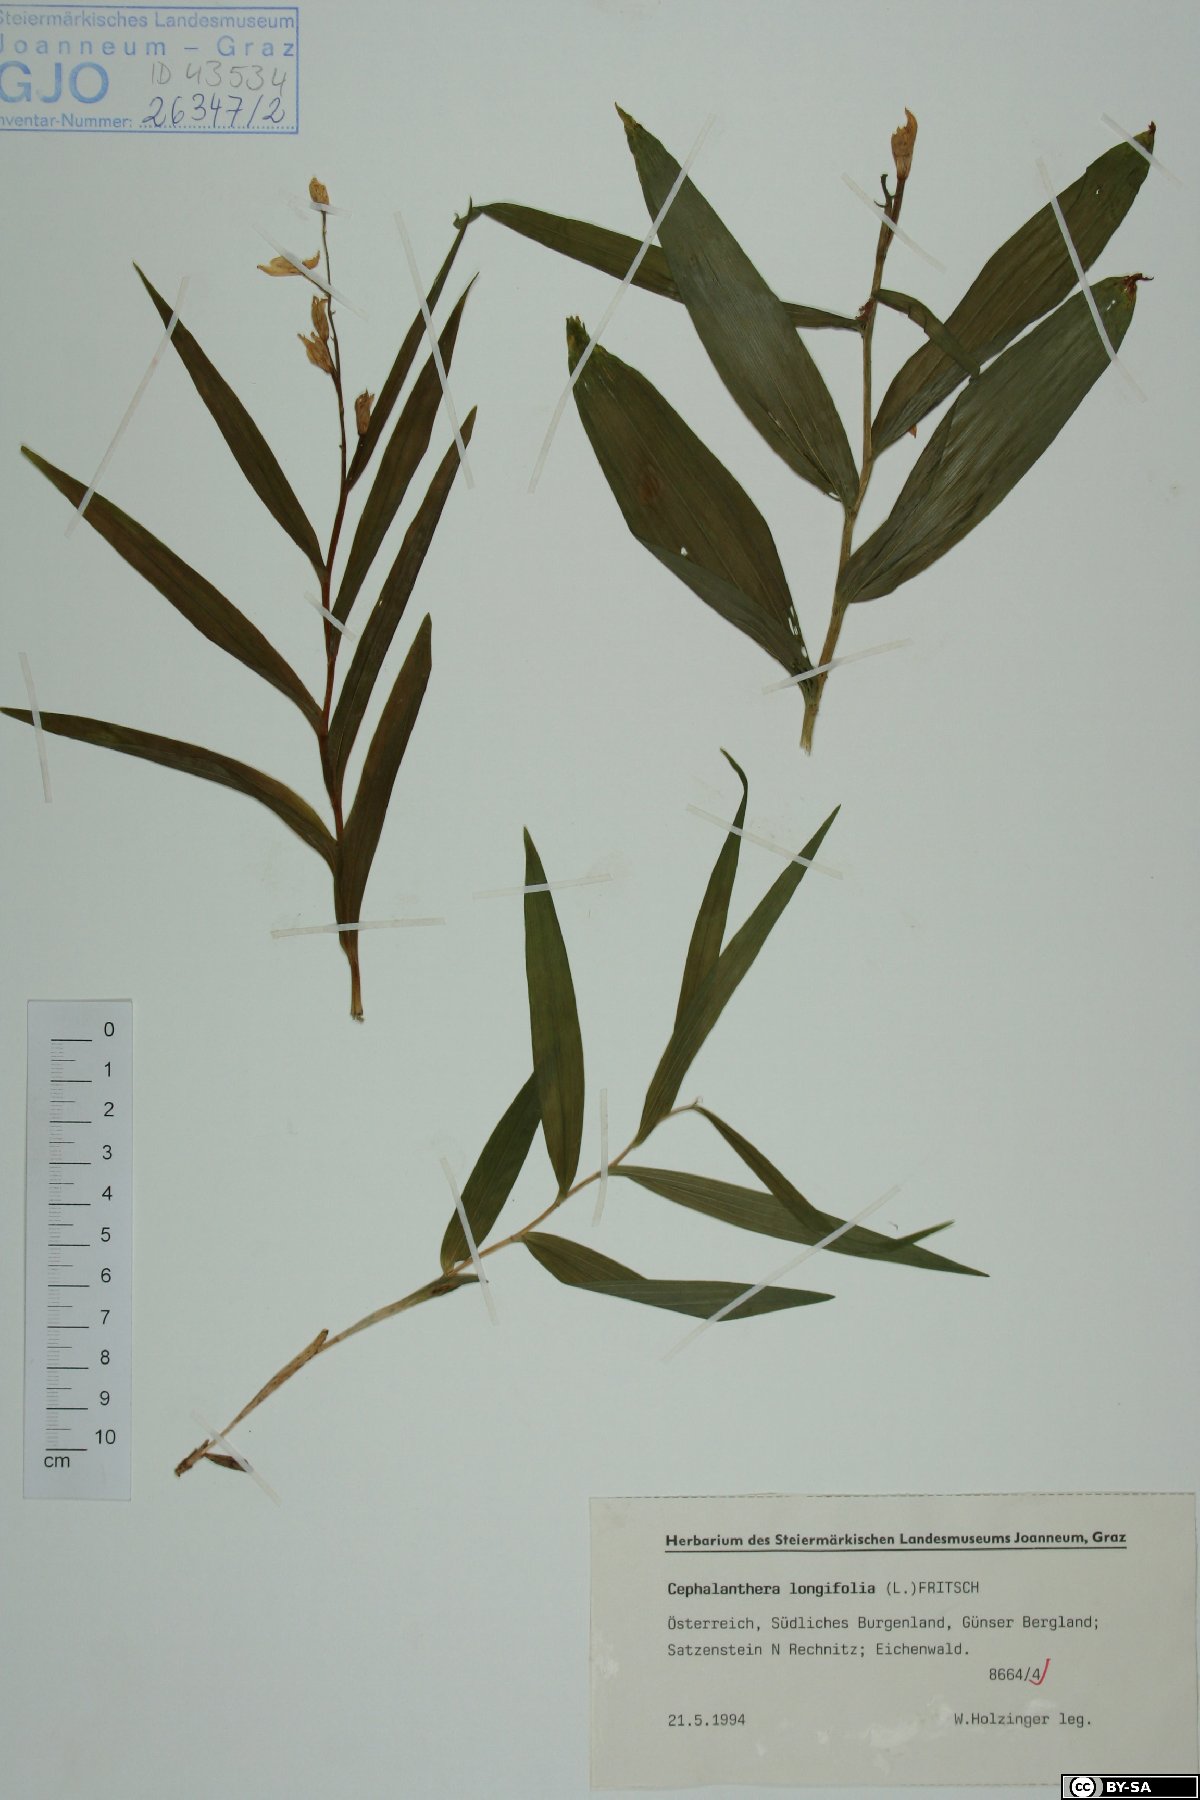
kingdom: Plantae
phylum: Tracheophyta
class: Liliopsida
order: Asparagales
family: Orchidaceae
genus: Cephalanthera
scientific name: Cephalanthera longifolia
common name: Narrow-leaved helleborine
